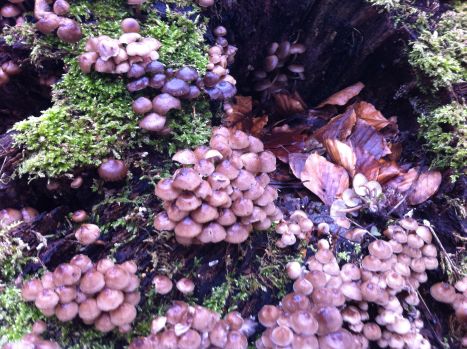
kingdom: Fungi
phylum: Basidiomycota
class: Agaricomycetes
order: Agaricales
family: Mycenaceae
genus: Mycena
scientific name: Mycena tintinnabulum
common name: vinter-huesvamp
